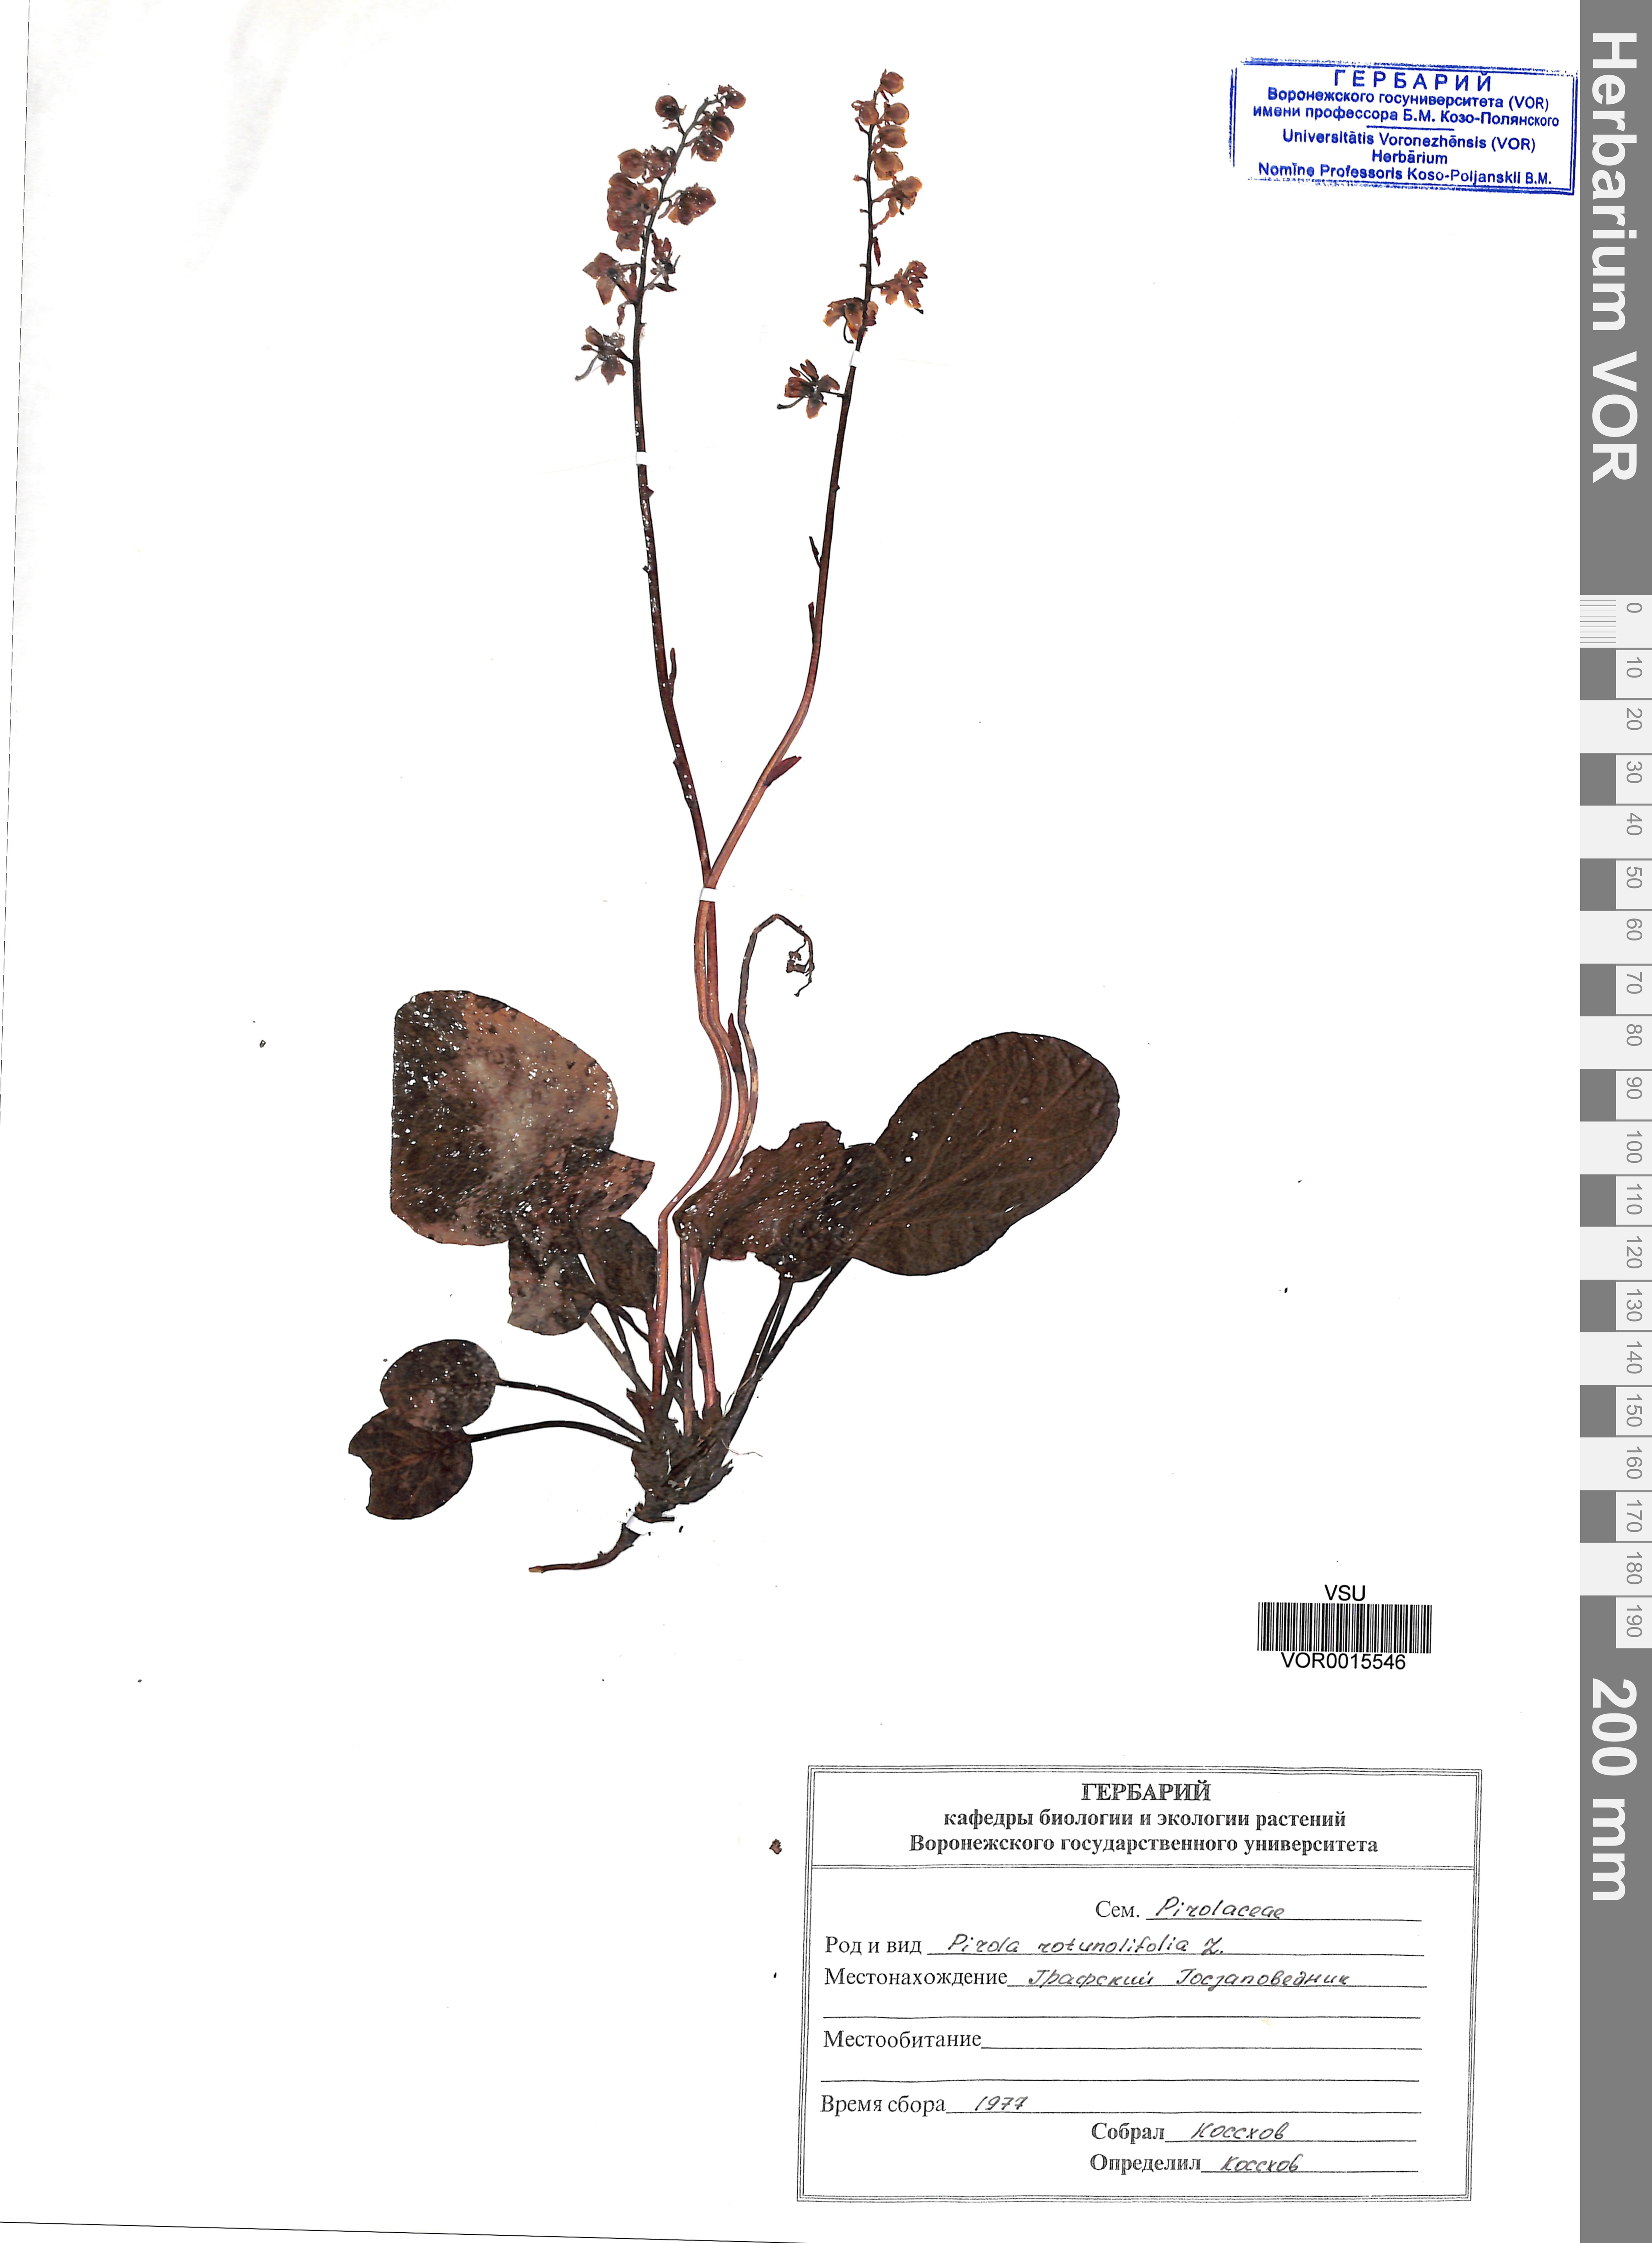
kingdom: Plantae
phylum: Tracheophyta
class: Magnoliopsida
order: Ericales
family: Ericaceae
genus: Pyrola
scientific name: Pyrola rotundifolia
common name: Round-leaved wintergreen
